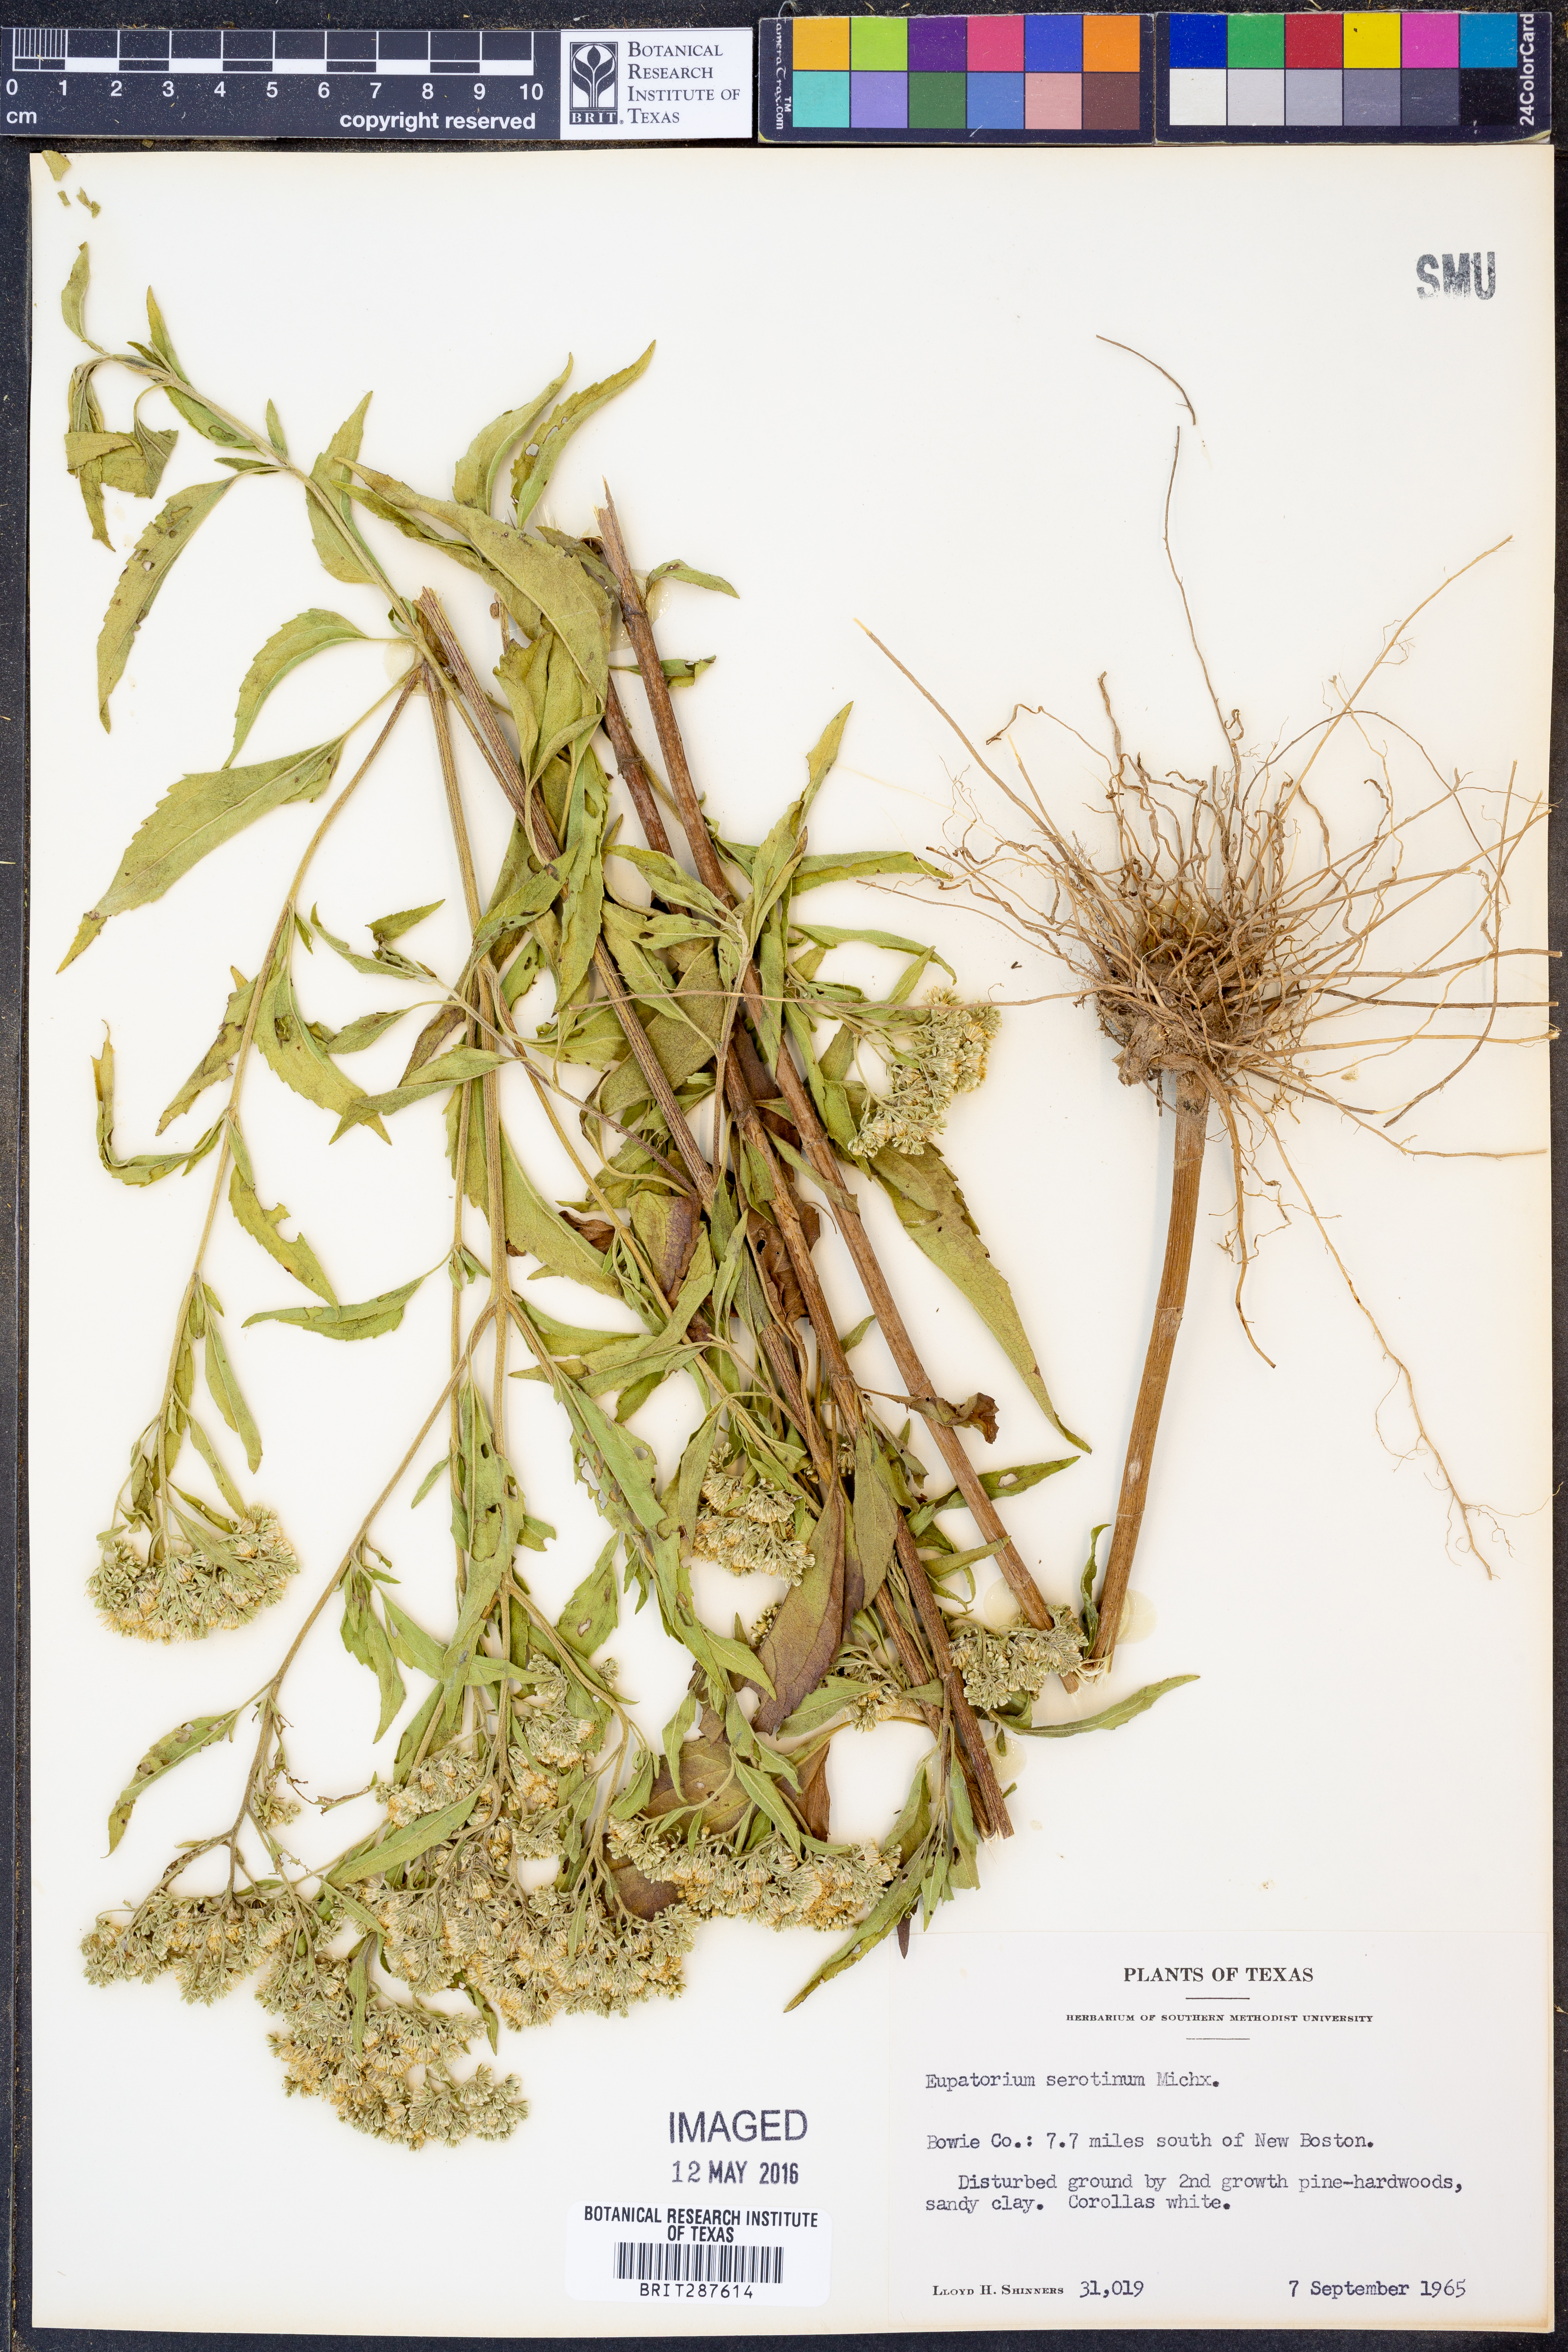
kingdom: Plantae
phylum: Tracheophyta
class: Magnoliopsida
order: Asterales
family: Asteraceae
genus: Eupatorium
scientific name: Eupatorium serotinum
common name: Late boneset
